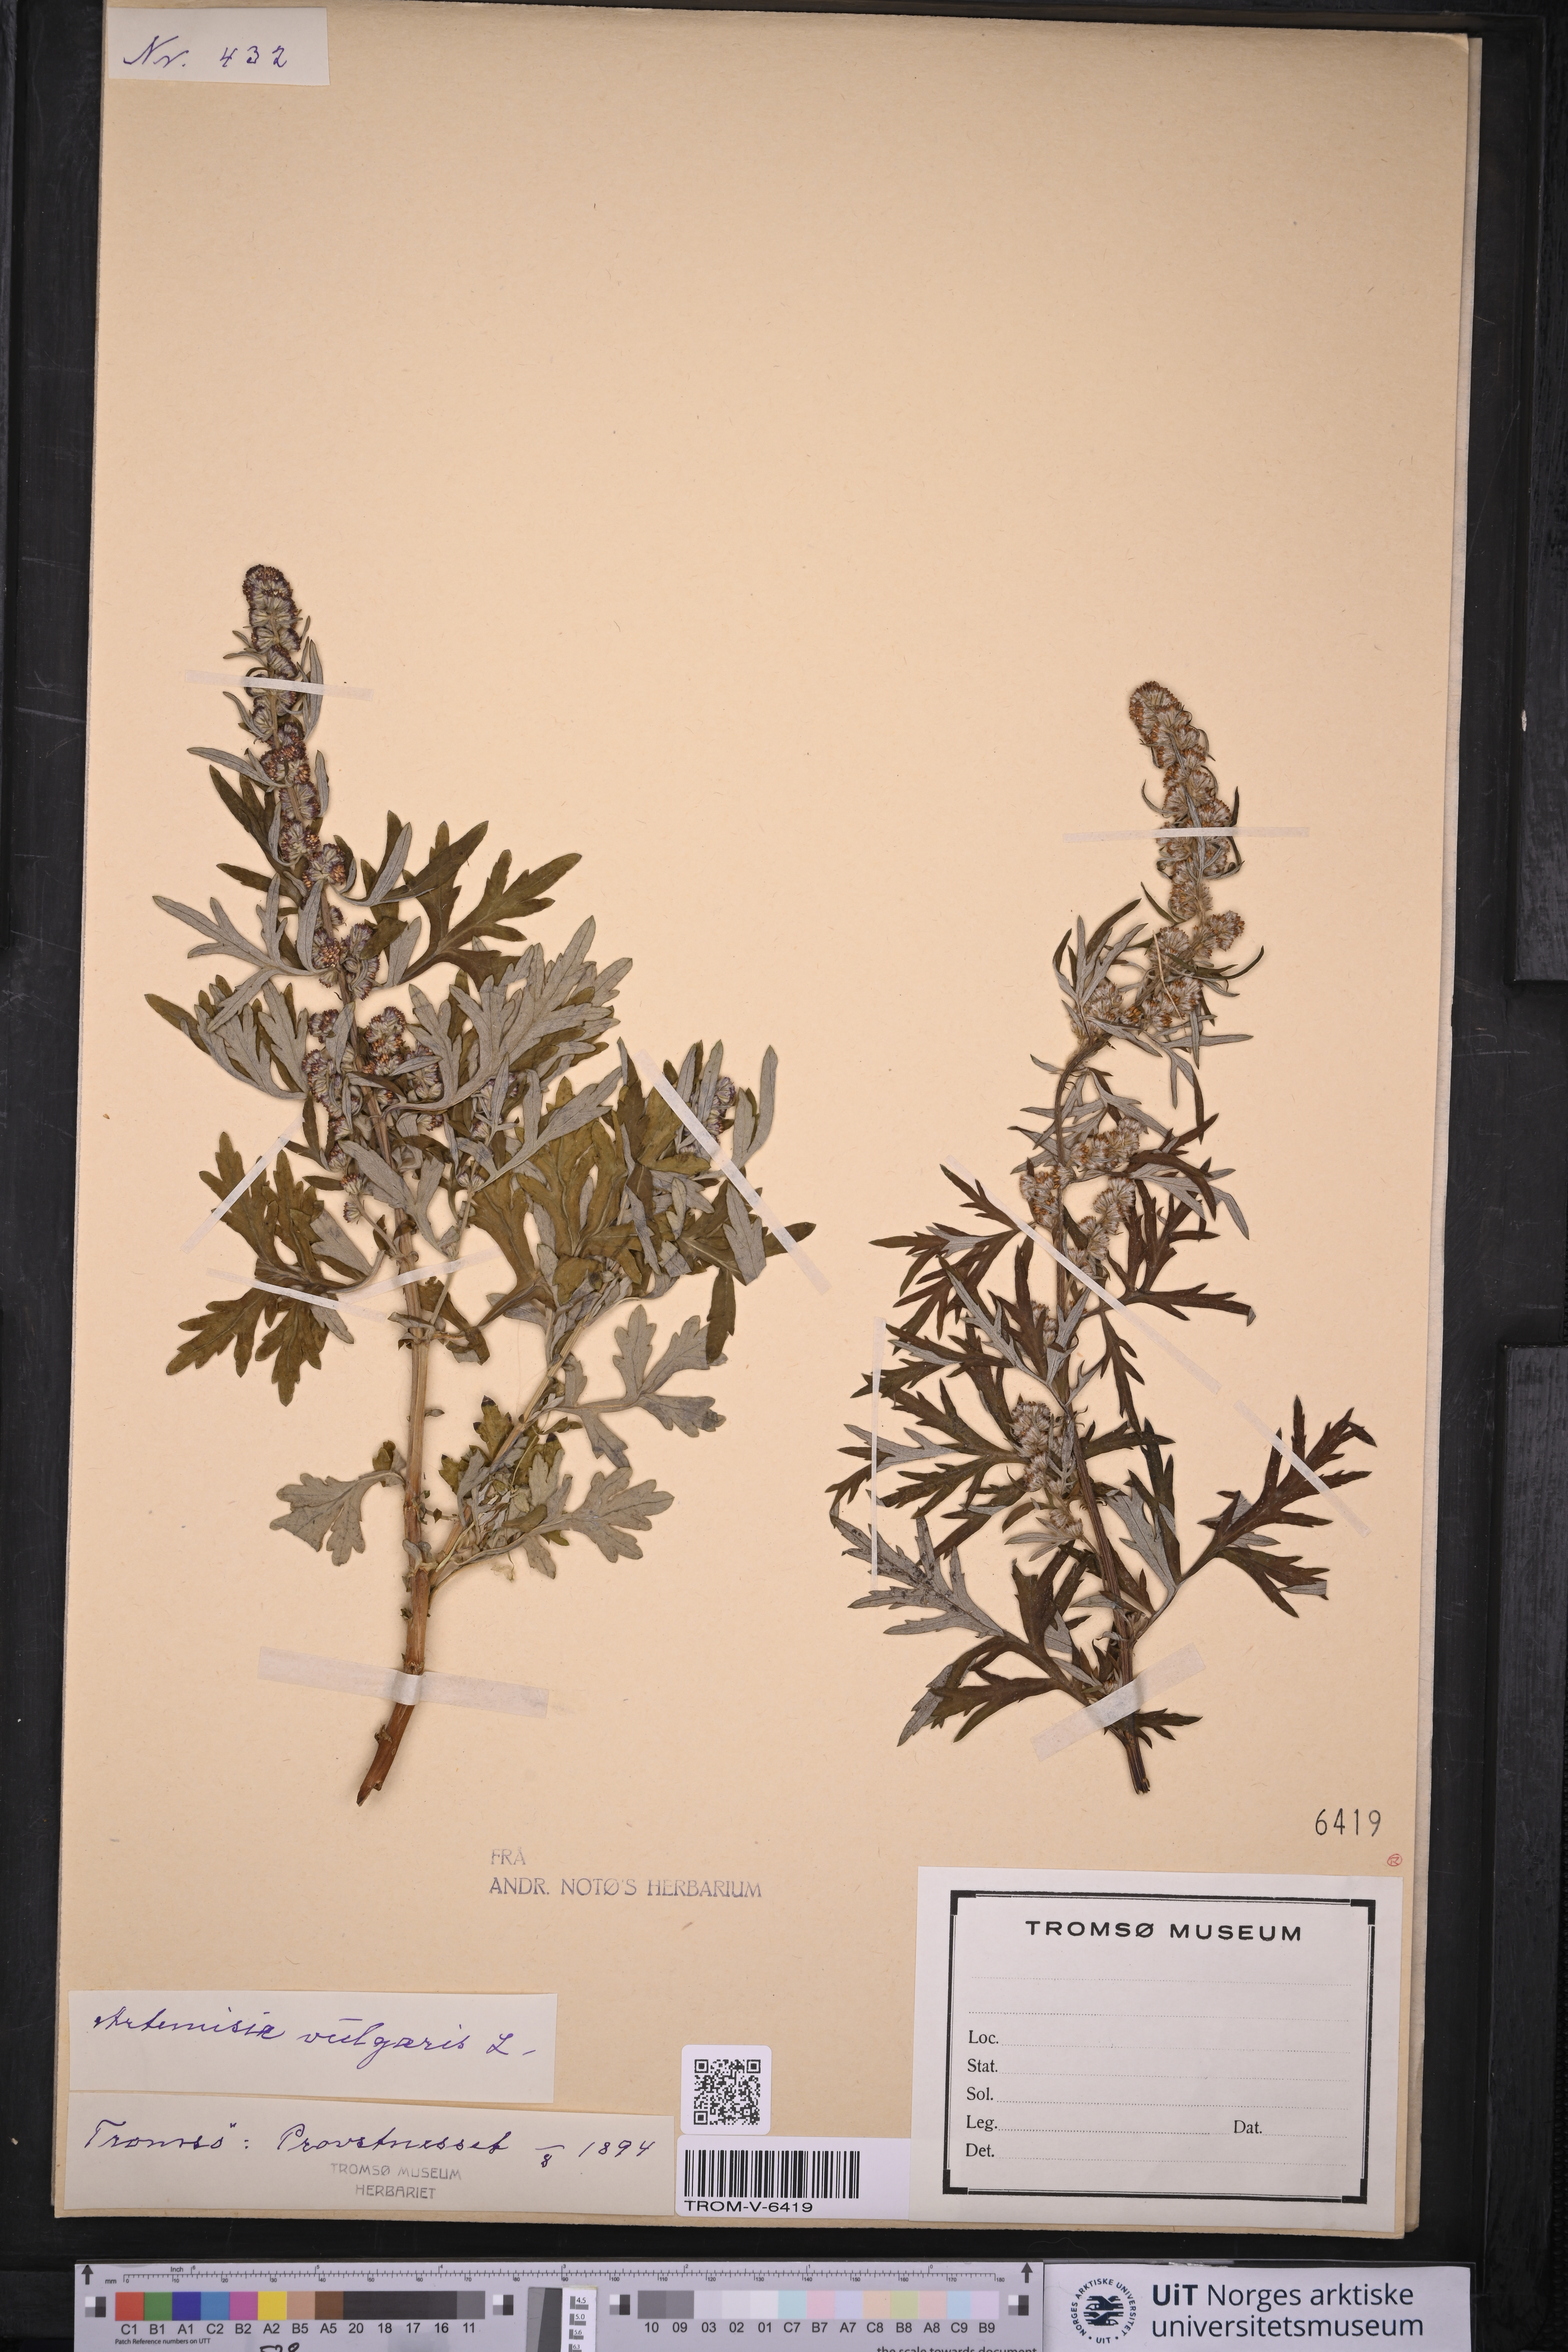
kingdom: Plantae
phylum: Tracheophyta
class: Magnoliopsida
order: Asterales
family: Asteraceae
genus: Artemisia
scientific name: Artemisia vulgaris
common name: Mugwort
